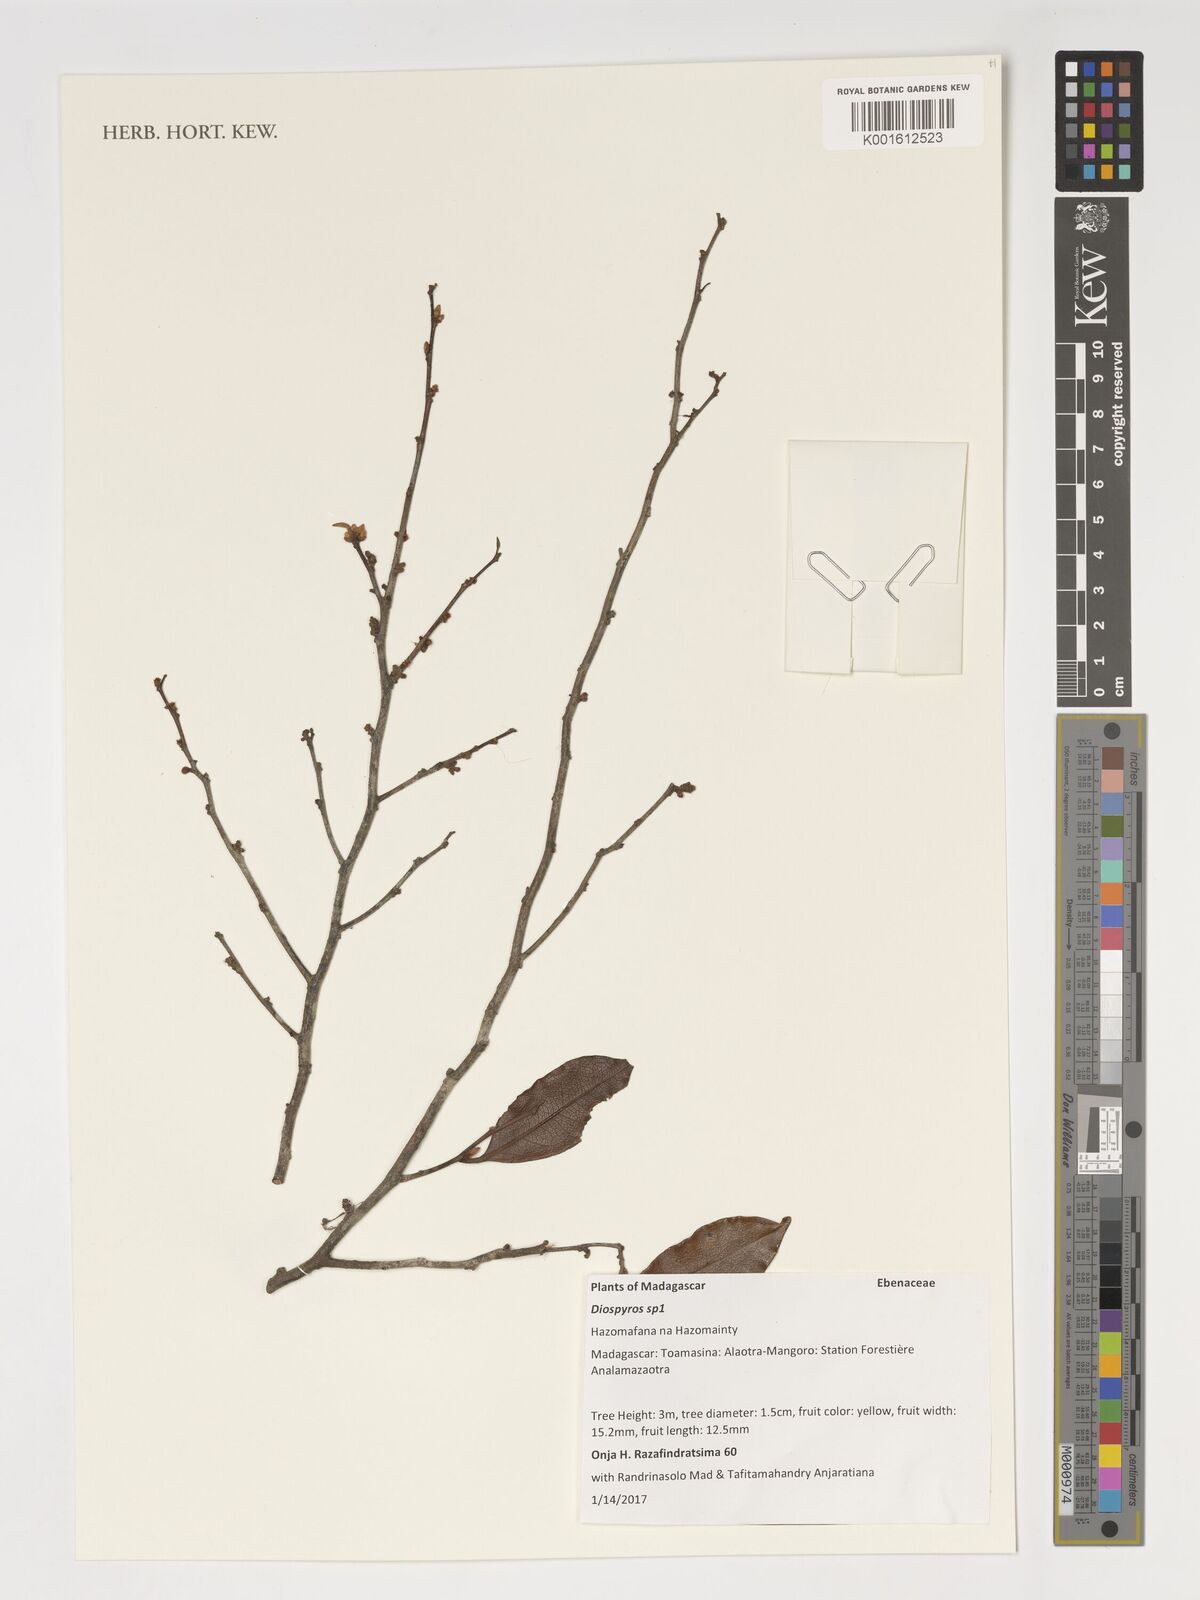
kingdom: Plantae
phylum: Tracheophyta
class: Magnoliopsida
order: Ericales
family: Ebenaceae
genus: Diospyros
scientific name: Diospyros
